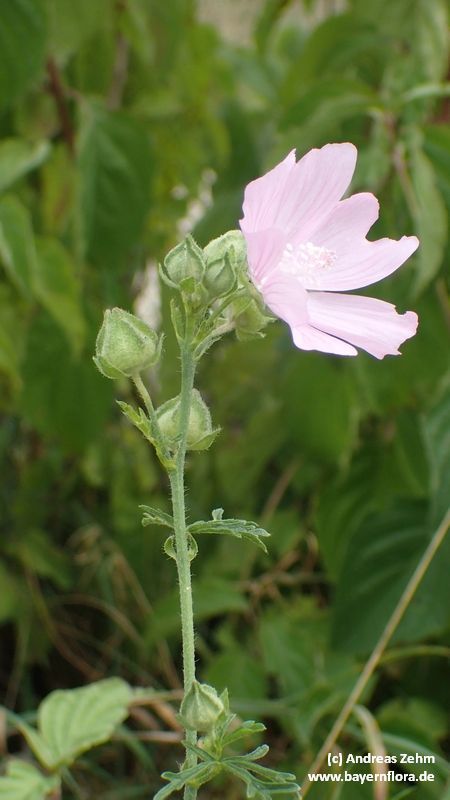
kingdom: Plantae
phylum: Tracheophyta
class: Magnoliopsida
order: Malvales
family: Malvaceae
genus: Malva
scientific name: Malva alcea
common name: Greater musk-mallow
